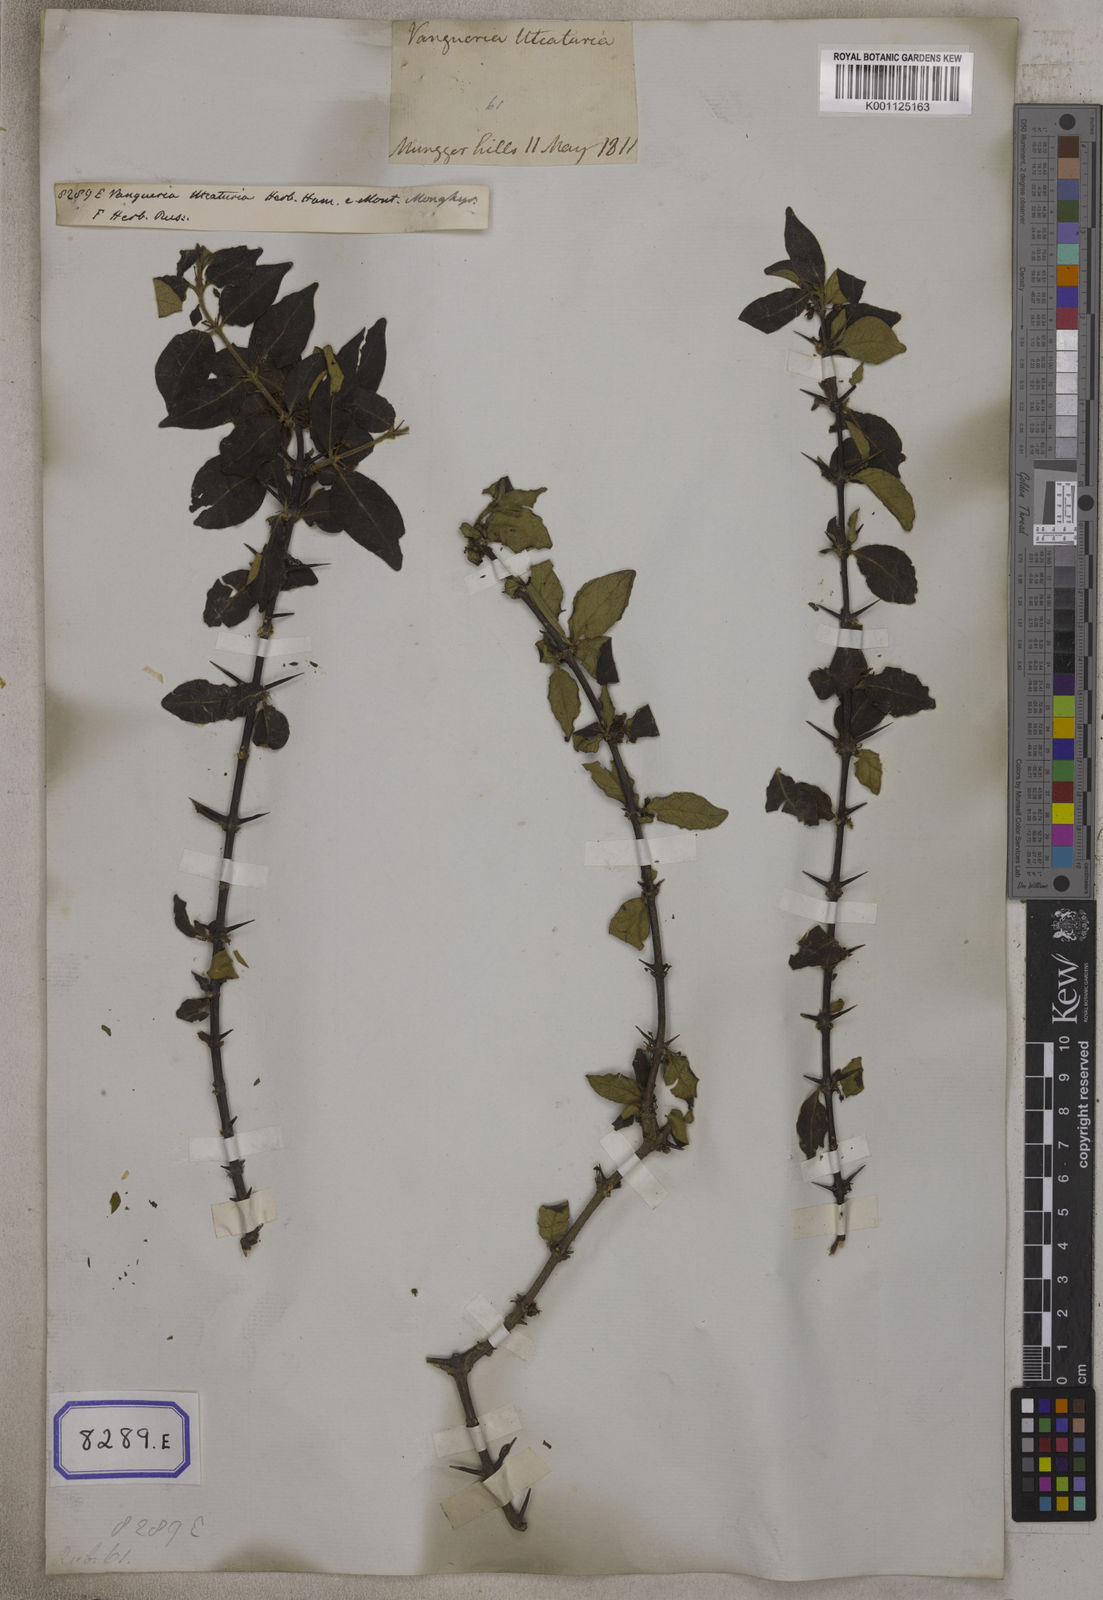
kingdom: Plantae
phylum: Tracheophyta
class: Magnoliopsida
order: Gentianales
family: Rubiaceae
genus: Canthium
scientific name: Canthium
